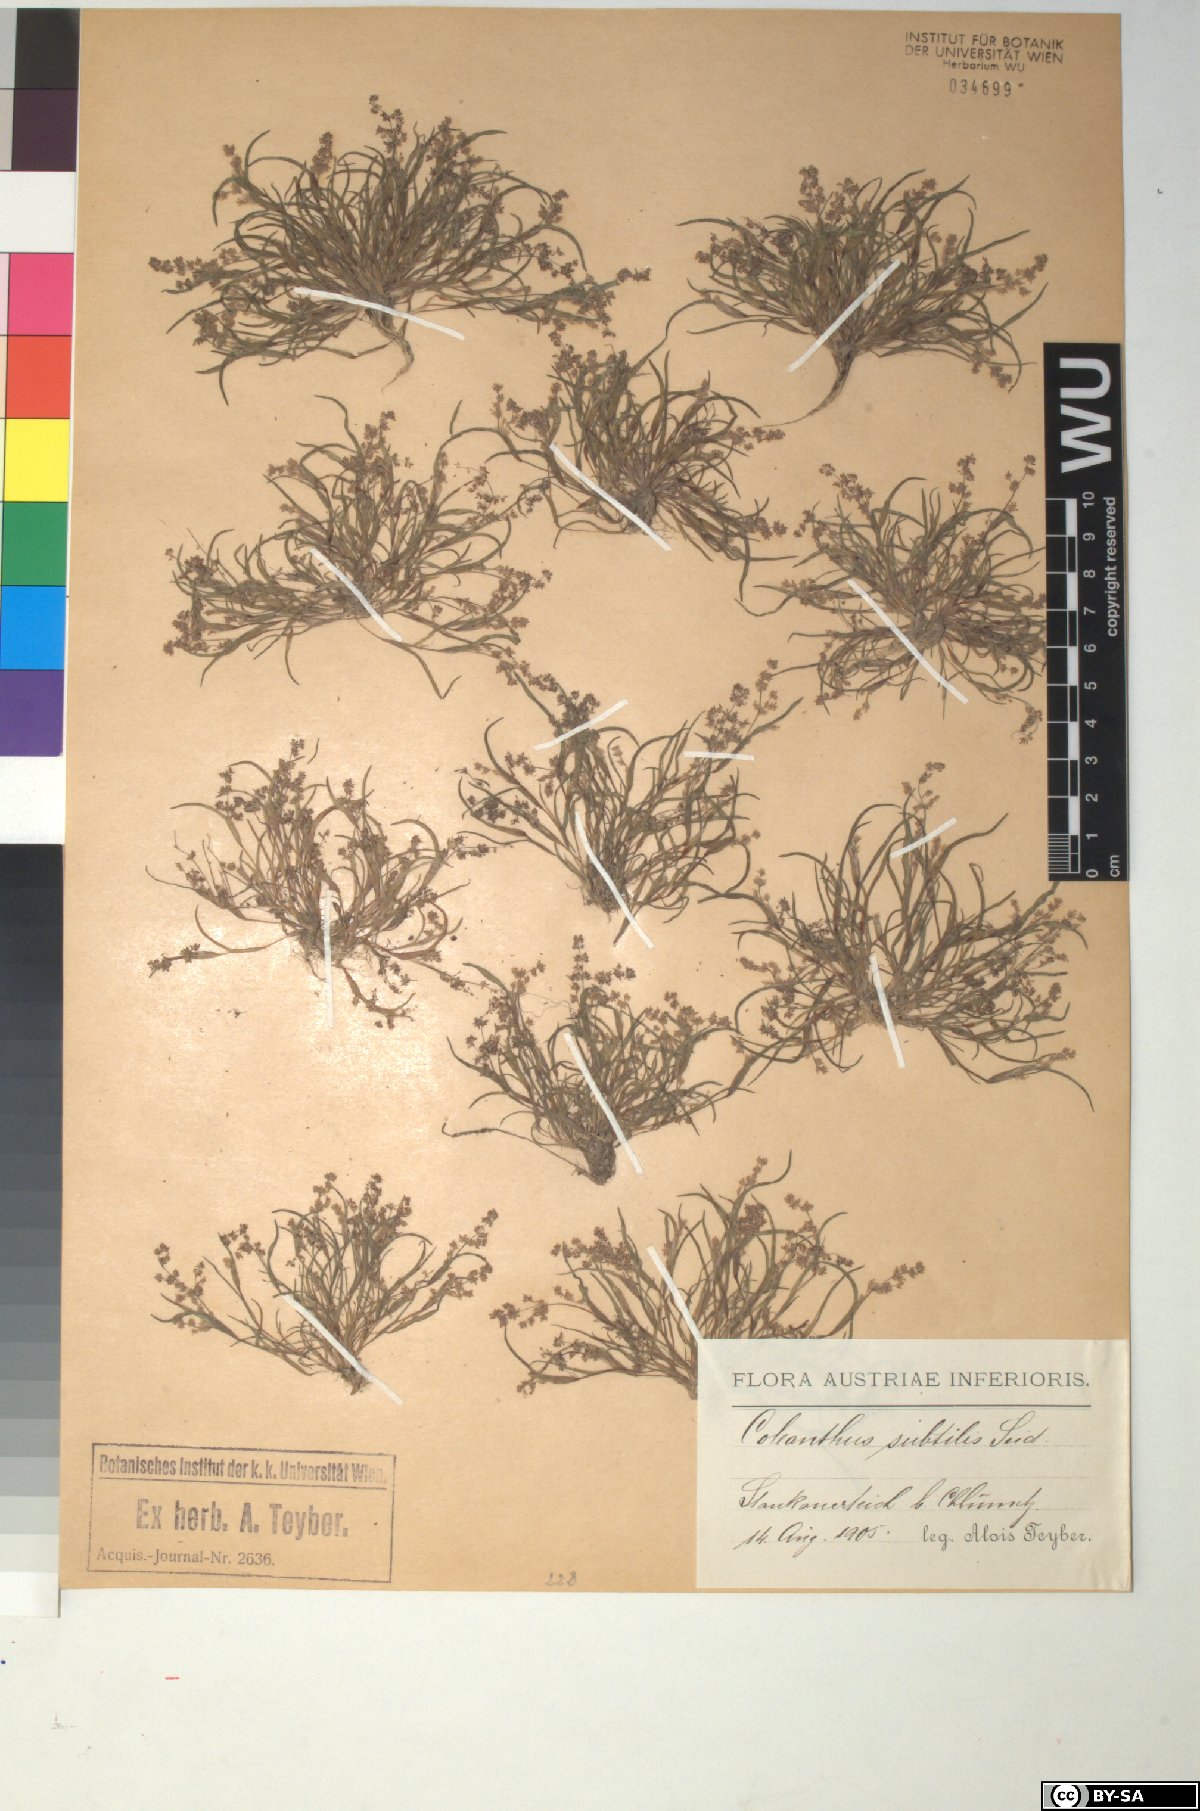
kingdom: Plantae
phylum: Tracheophyta
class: Liliopsida
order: Poales
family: Poaceae
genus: Coleanthus
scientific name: Coleanthus subtilis
